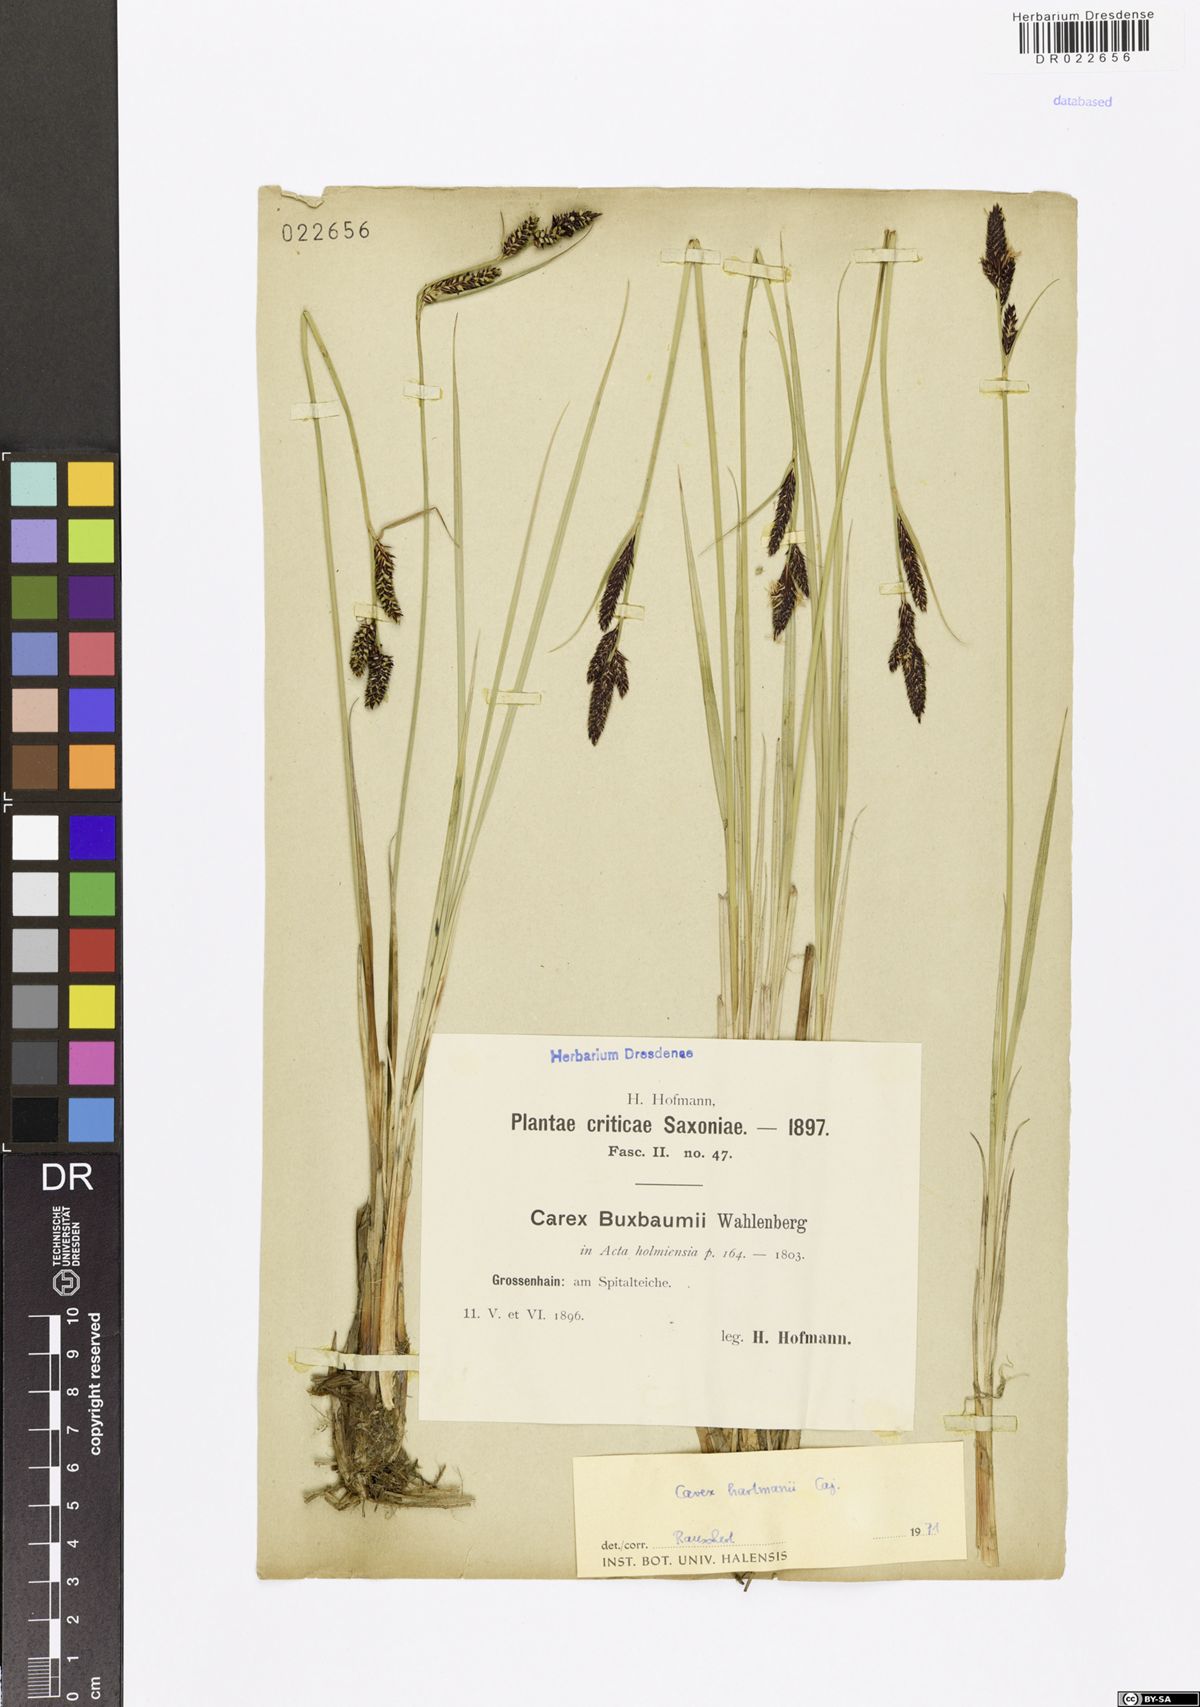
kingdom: Plantae
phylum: Tracheophyta
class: Liliopsida
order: Poales
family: Cyperaceae
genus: Carex
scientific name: Carex hartmaniorum
